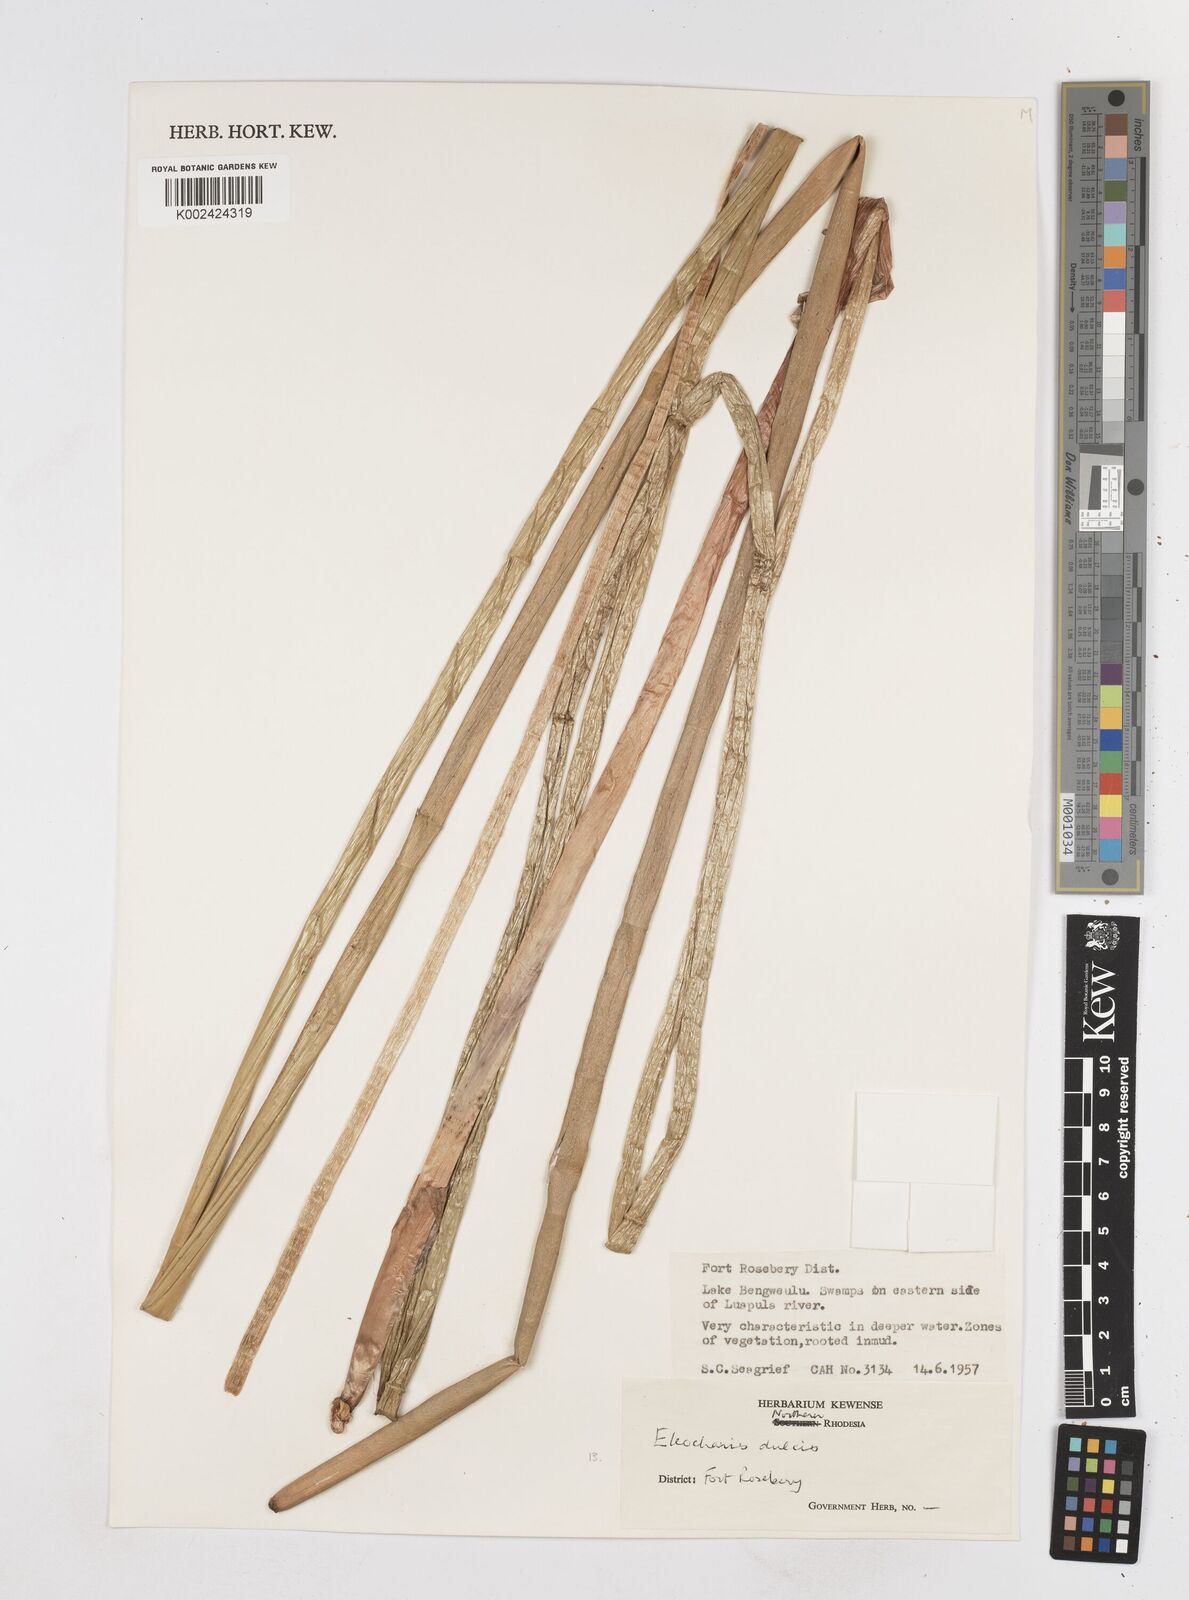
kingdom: Plantae
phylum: Tracheophyta
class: Liliopsida
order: Poales
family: Cyperaceae
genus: Eleocharis
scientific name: Eleocharis dulcis
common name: Chinese water chestnut
